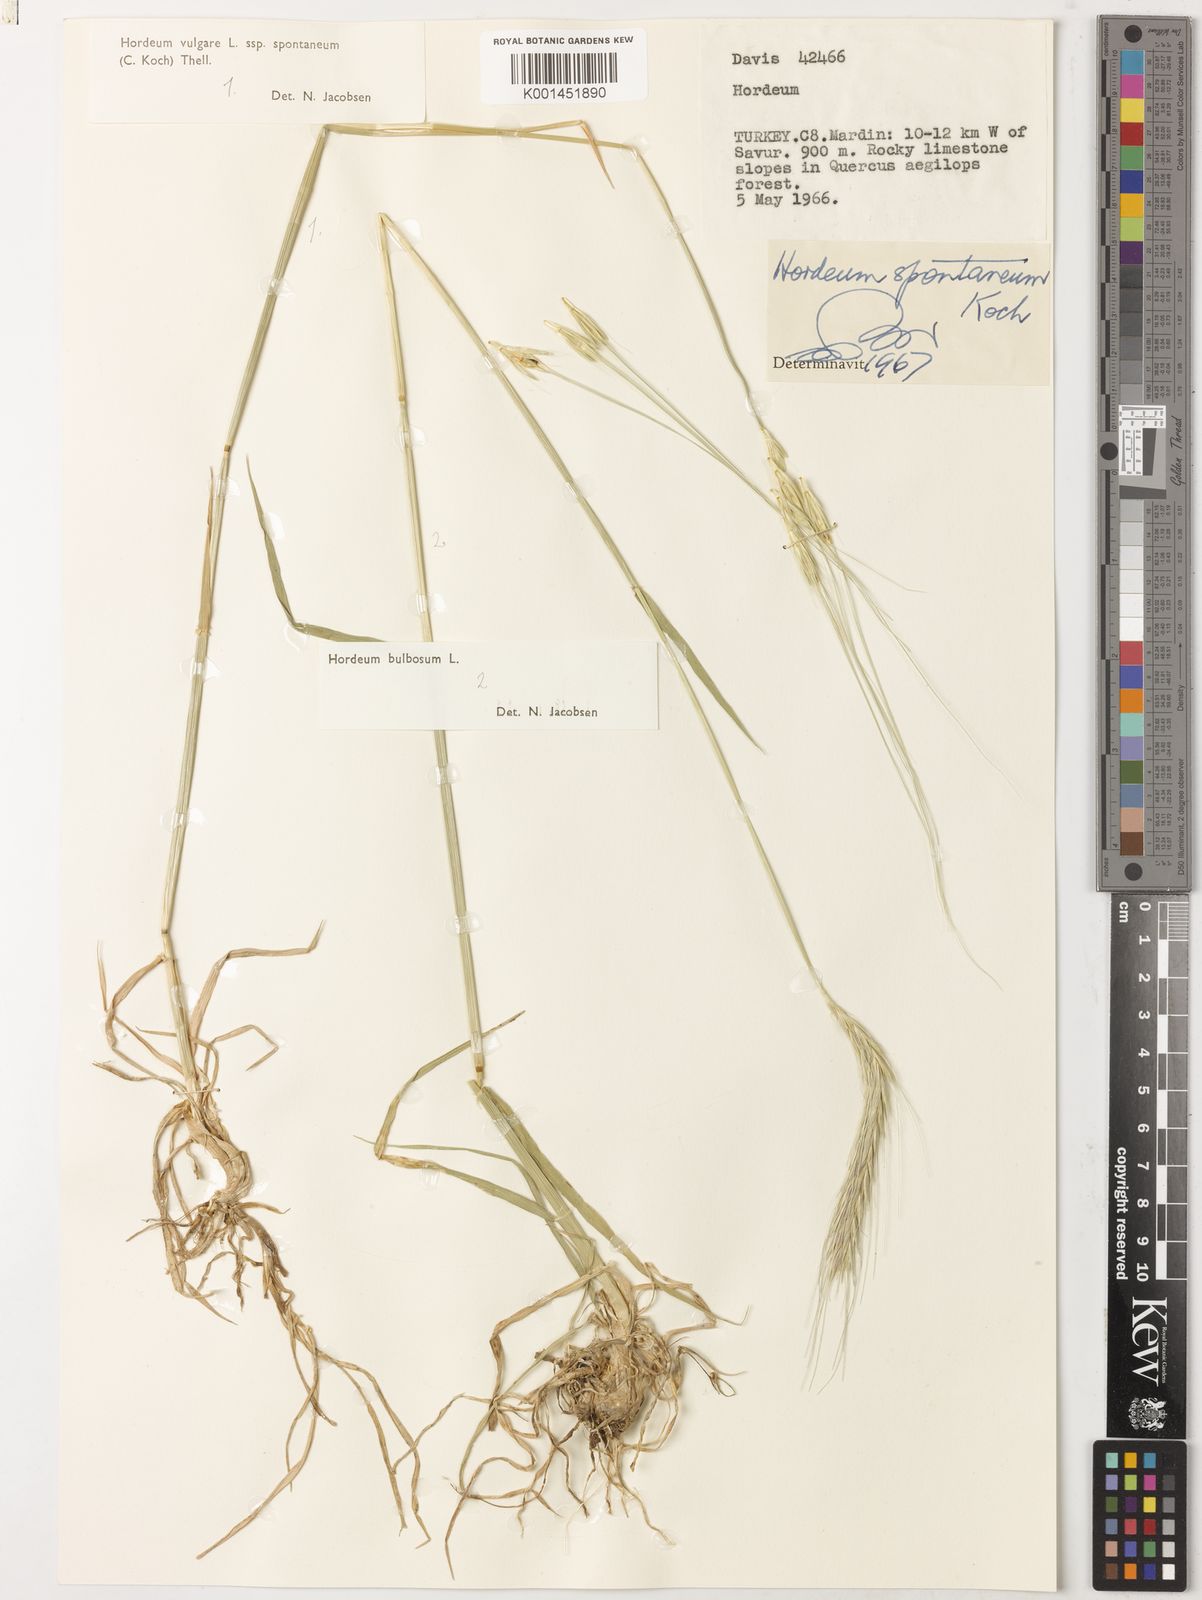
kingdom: Plantae
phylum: Tracheophyta
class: Liliopsida
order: Poales
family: Poaceae
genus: Hordeum
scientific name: Hordeum spontaneum
